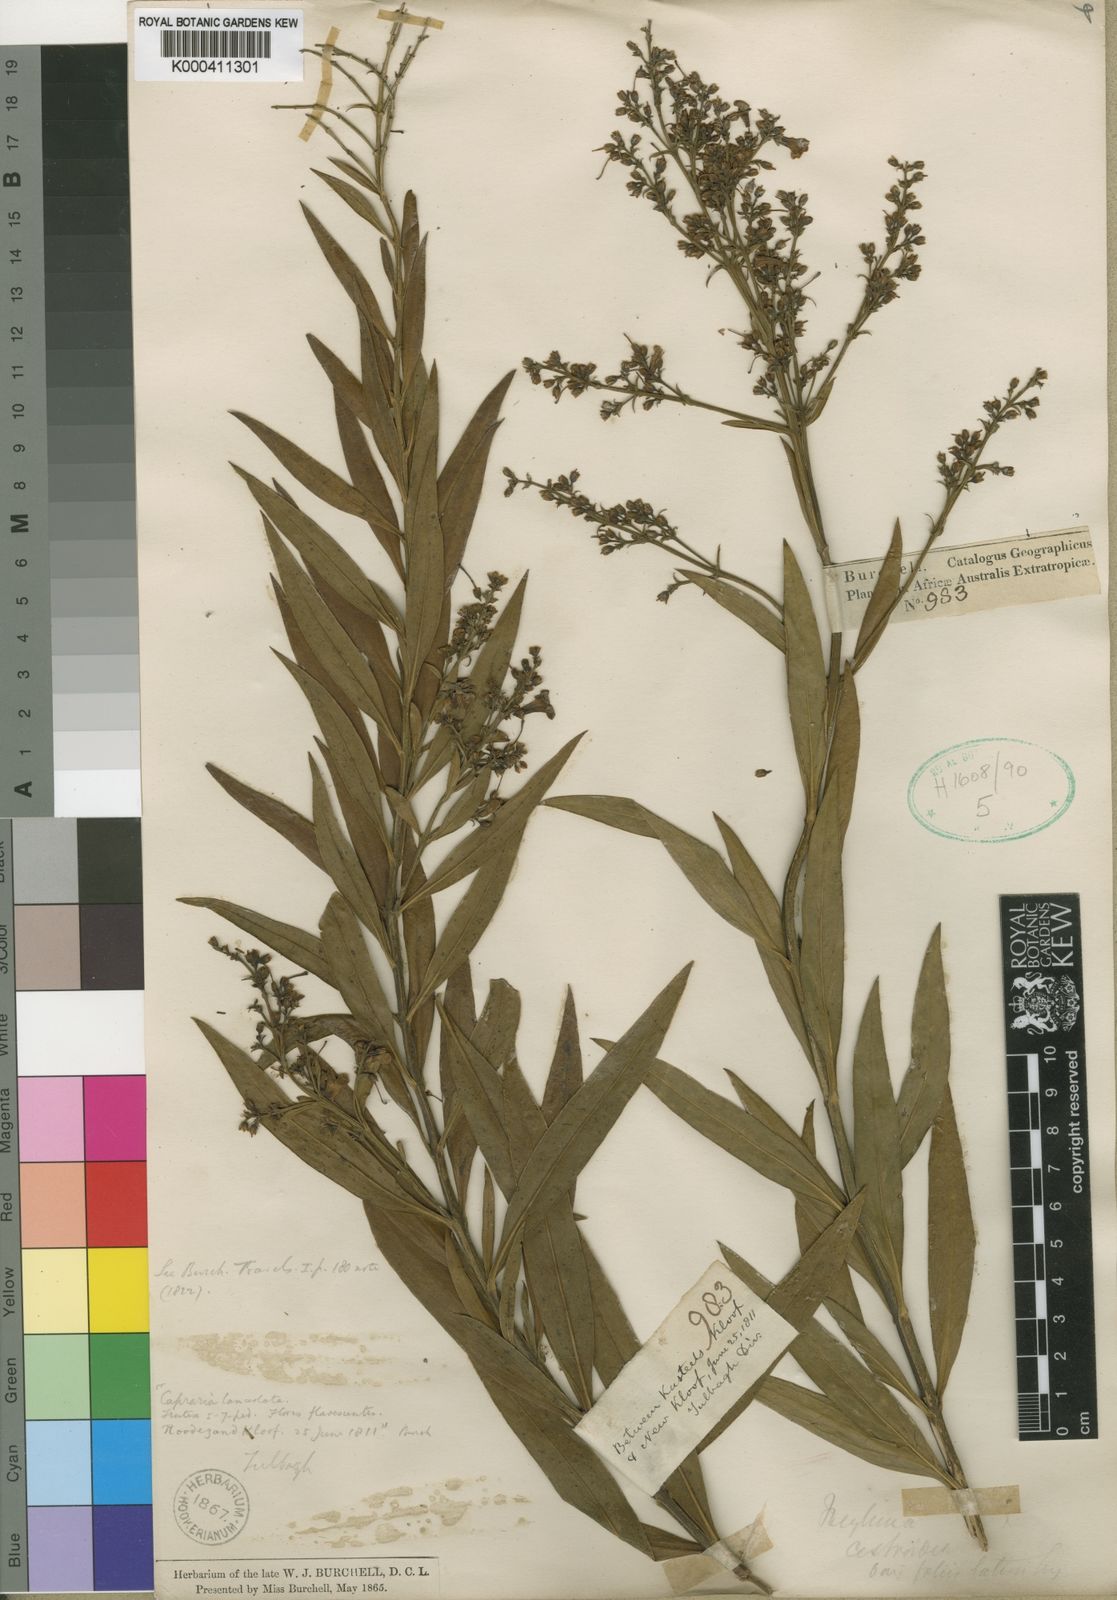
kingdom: Plantae
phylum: Tracheophyta
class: Magnoliopsida
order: Lamiales
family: Scrophulariaceae
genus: Freylinia
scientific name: Freylinia lanceolata
